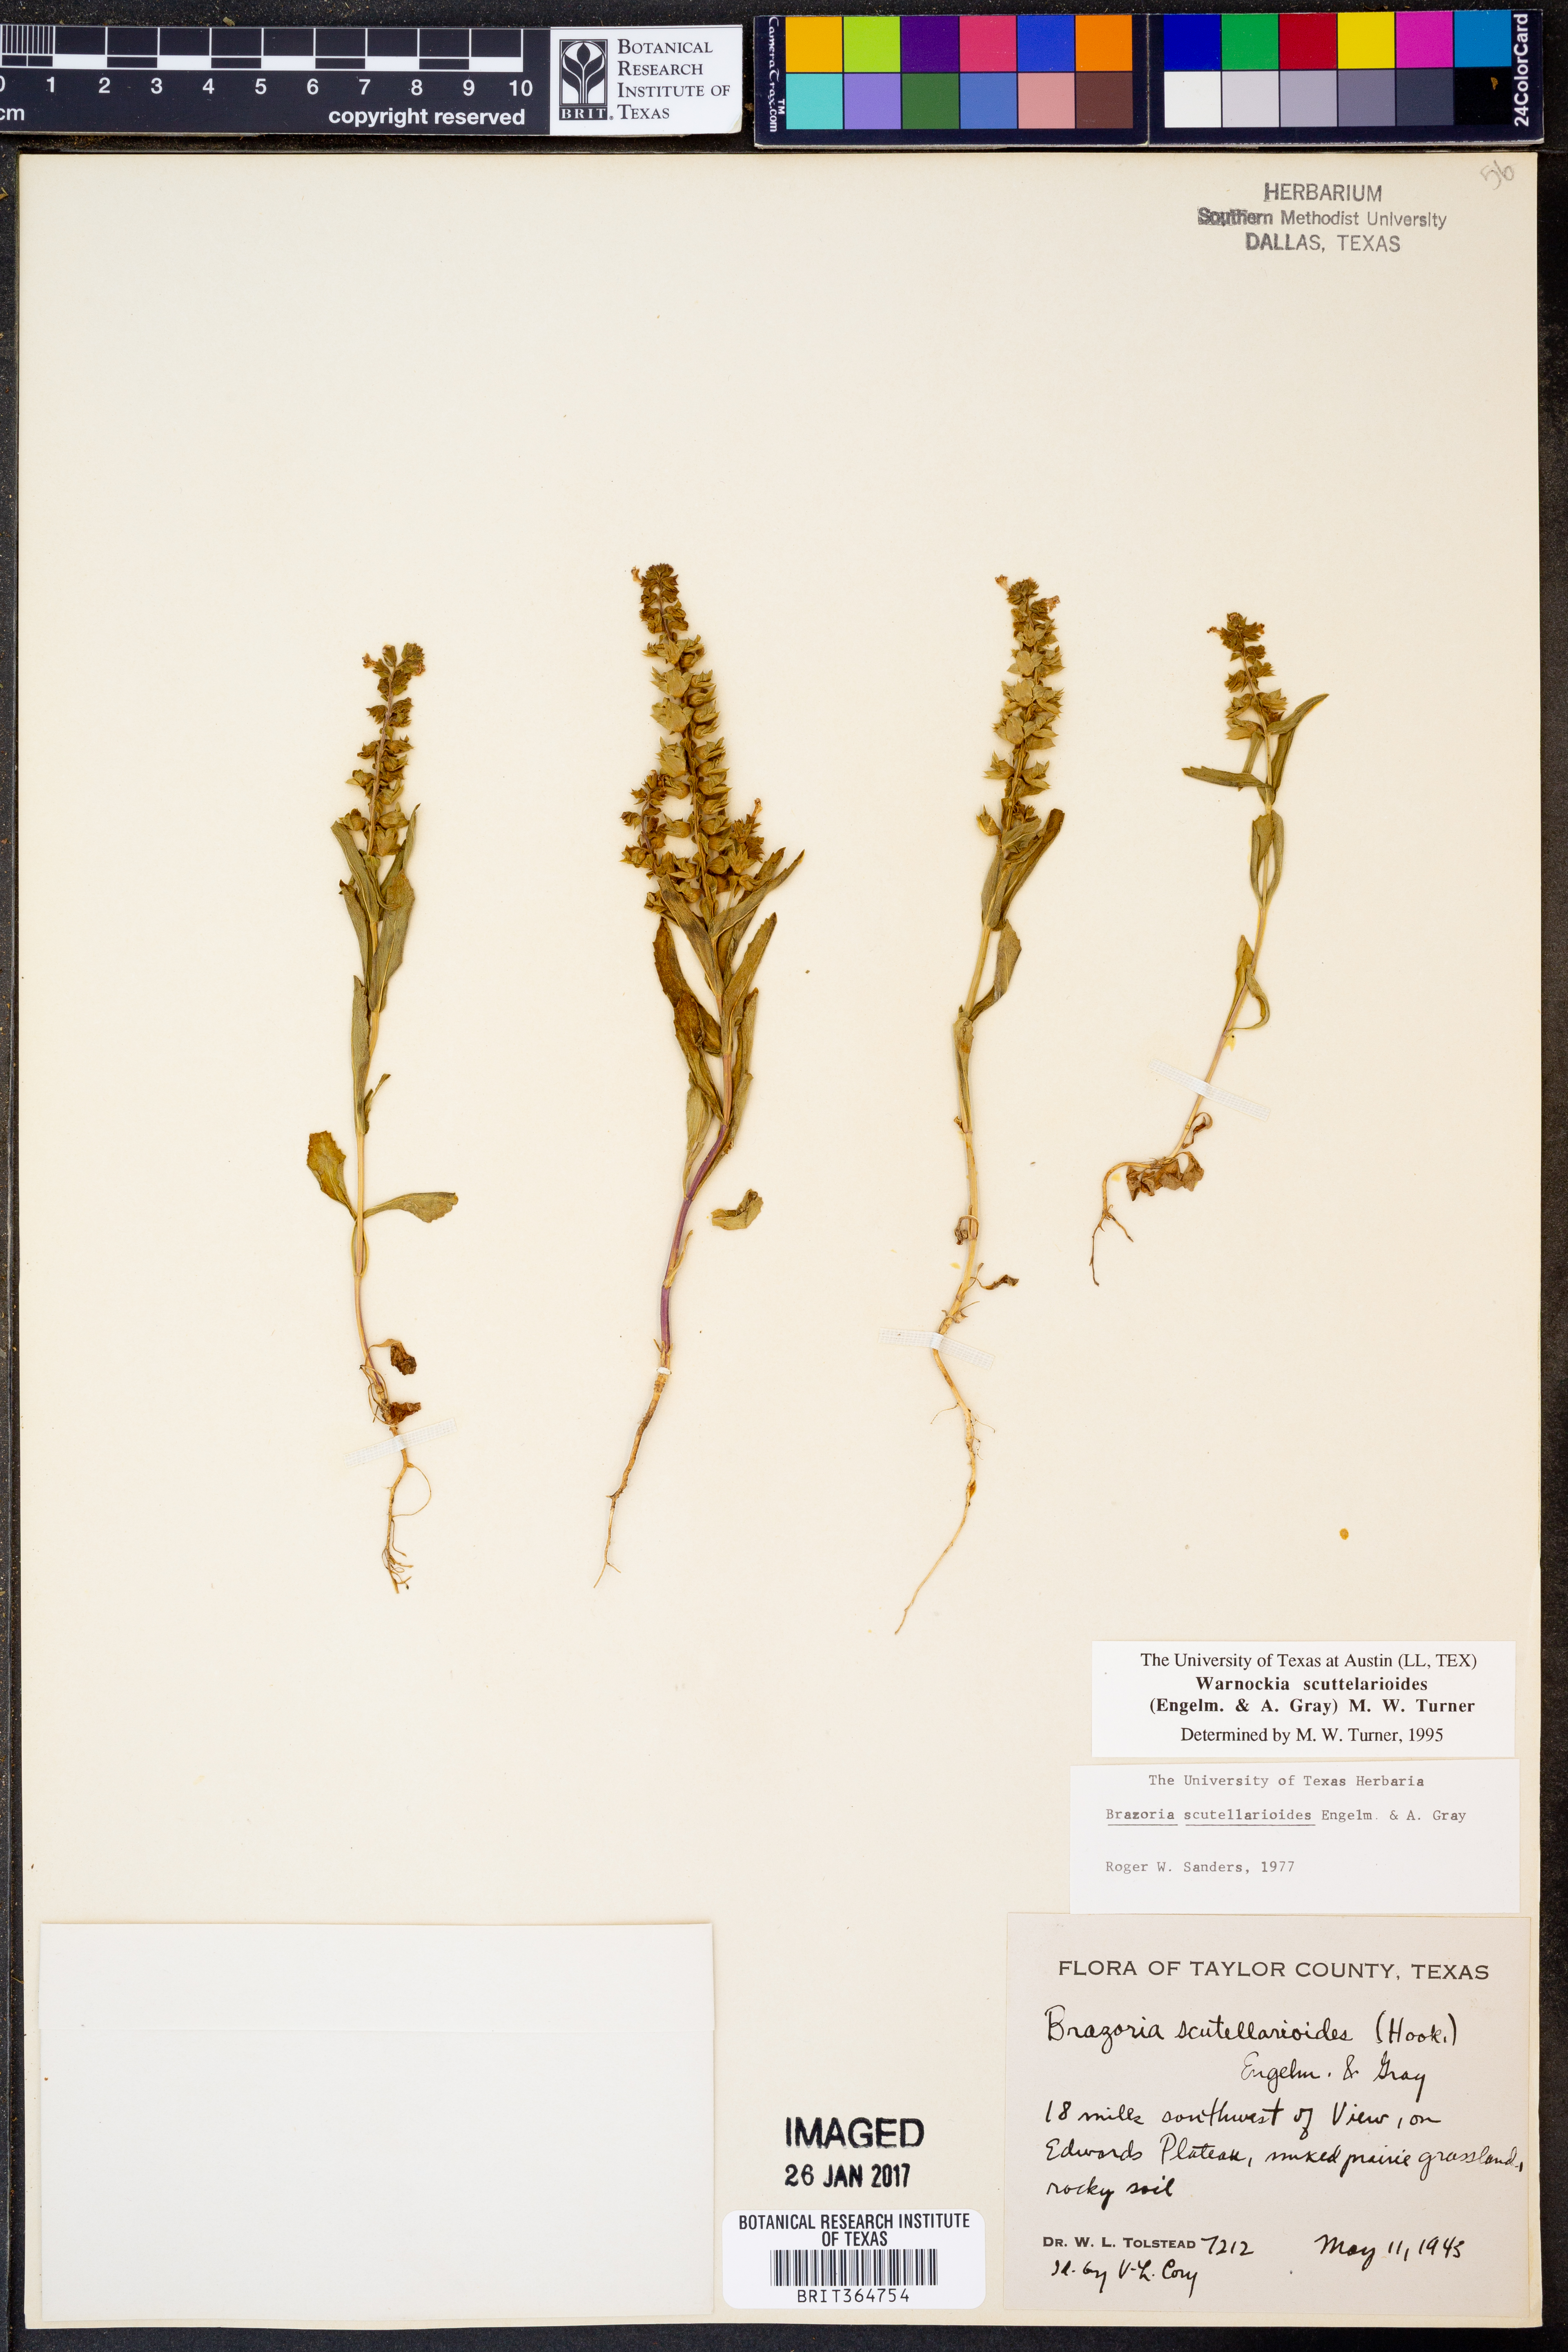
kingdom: Plantae
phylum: Tracheophyta
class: Magnoliopsida
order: Lamiales
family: Lamiaceae
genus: Warnockia
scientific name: Warnockia scutellarioides
